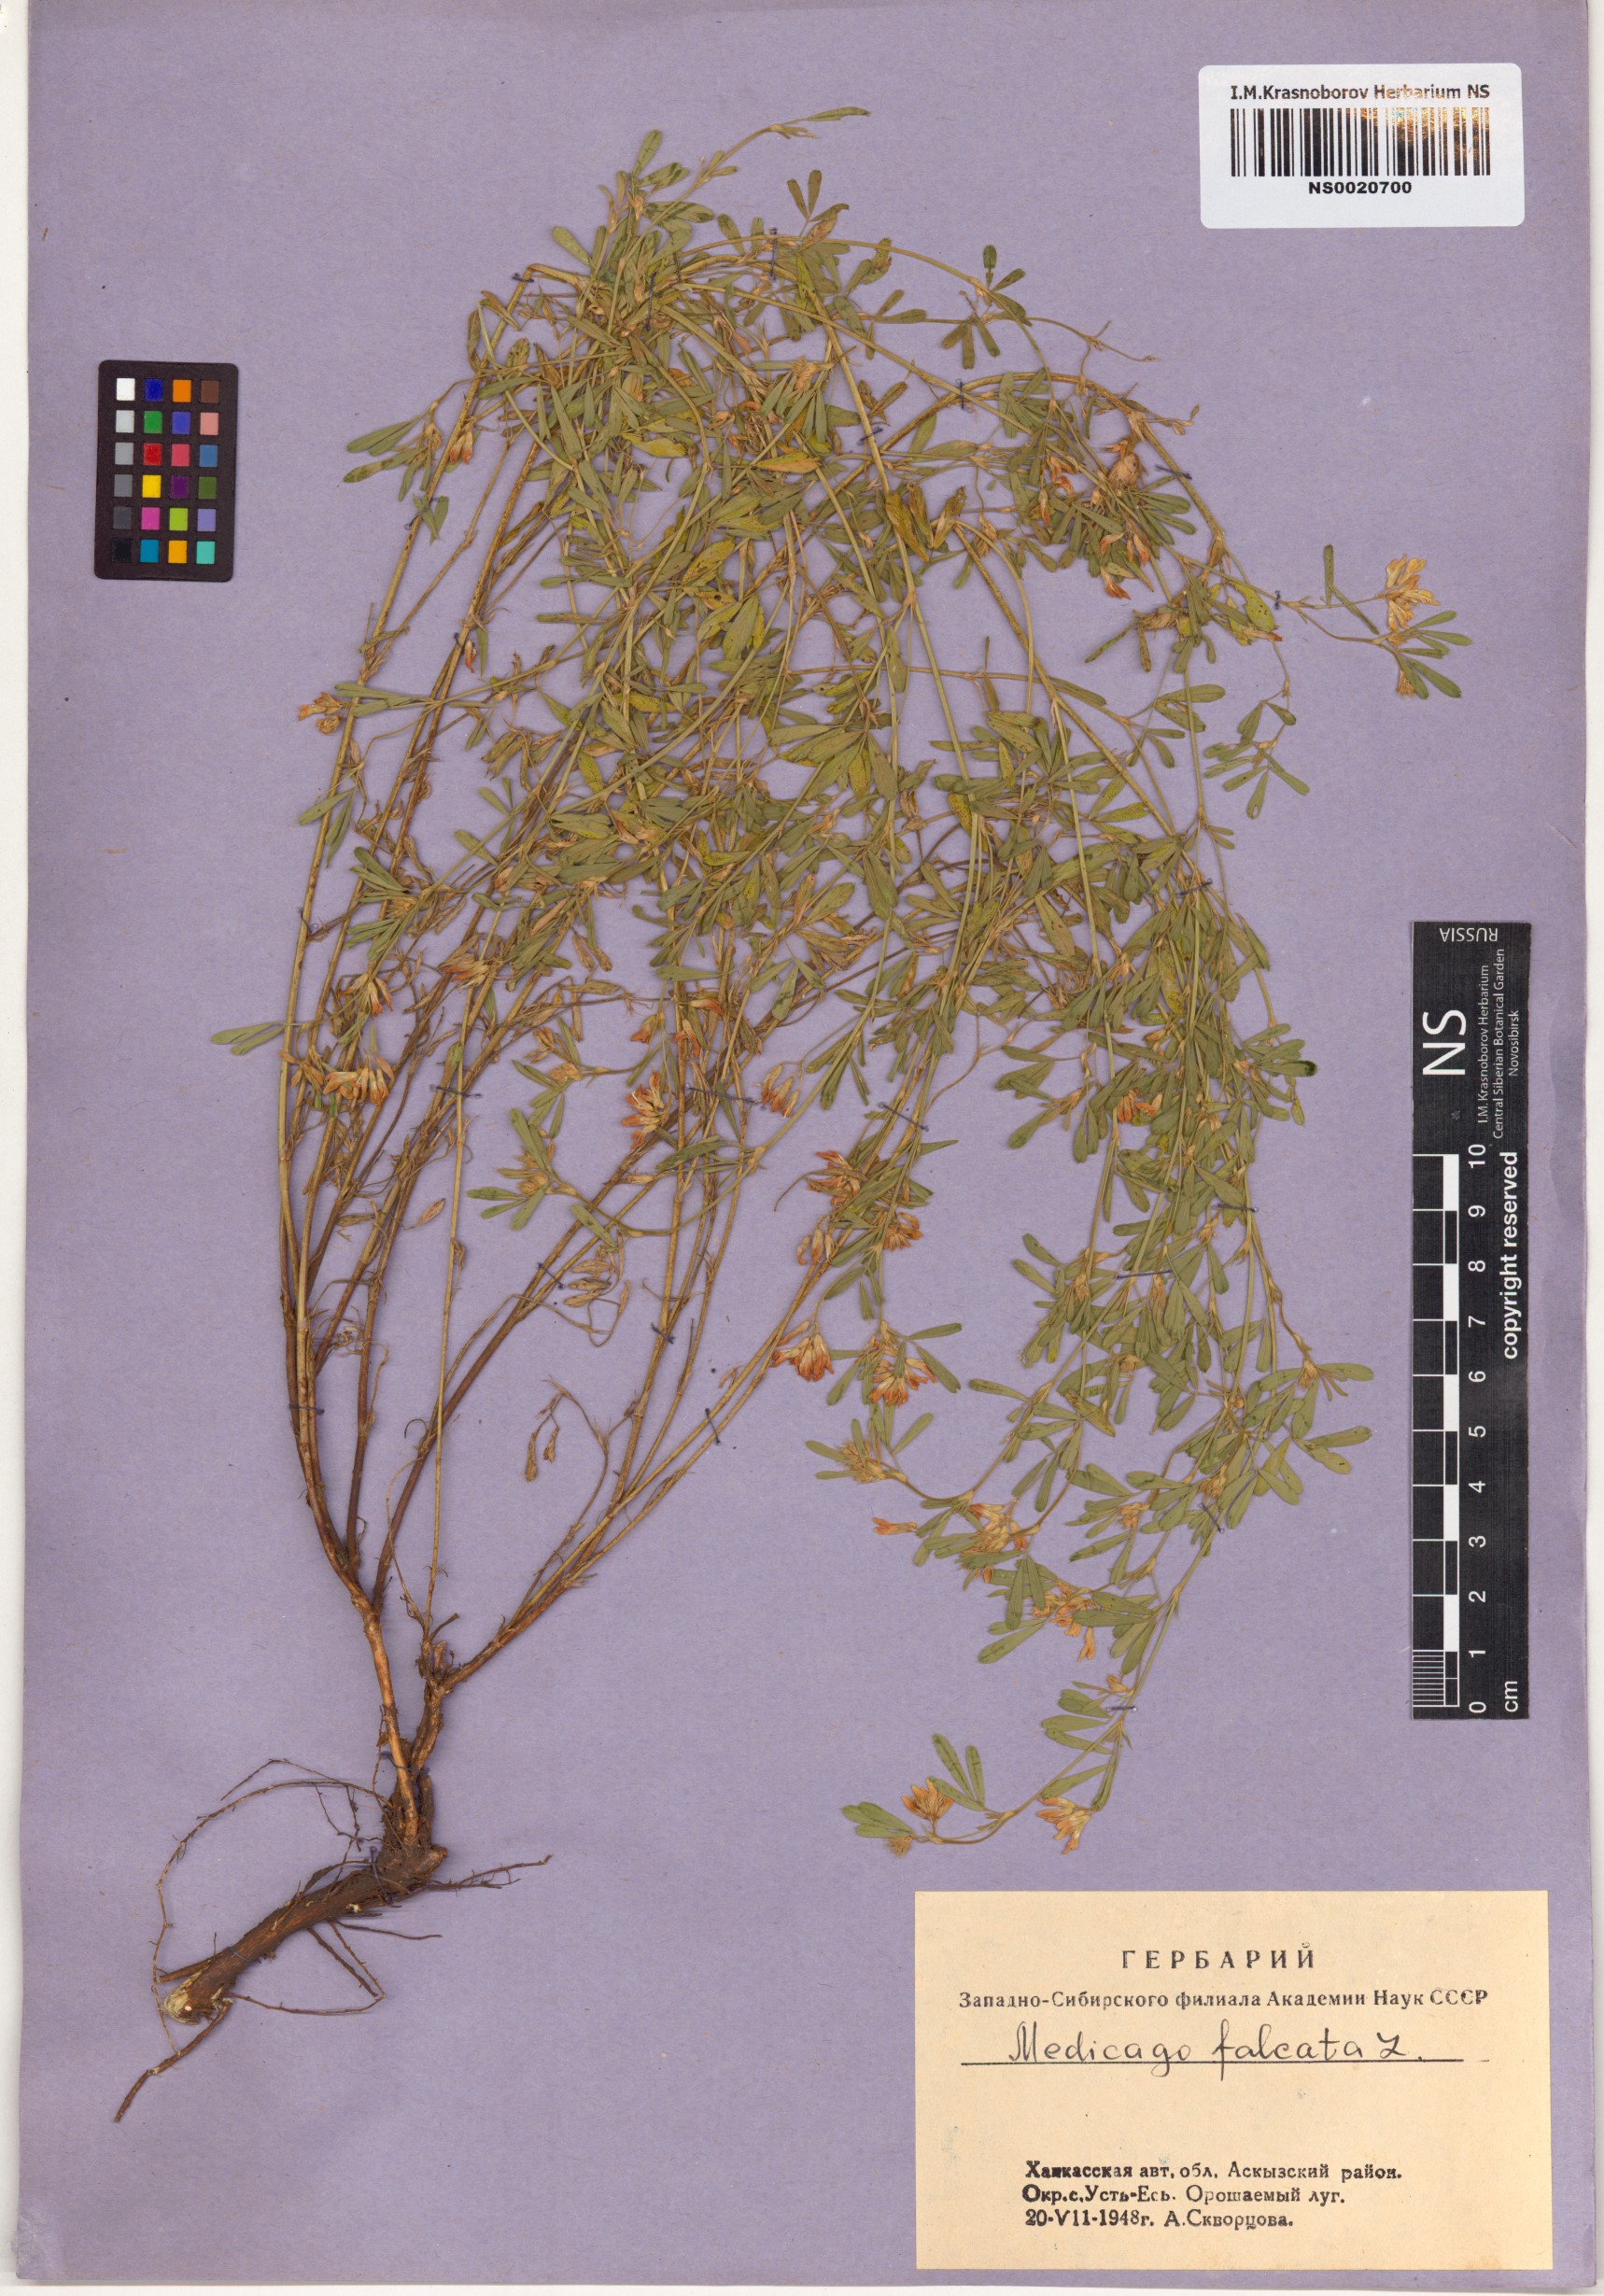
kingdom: Plantae
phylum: Tracheophyta
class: Magnoliopsida
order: Fabales
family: Fabaceae
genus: Medicago
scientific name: Medicago falcata
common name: Sickle medick
